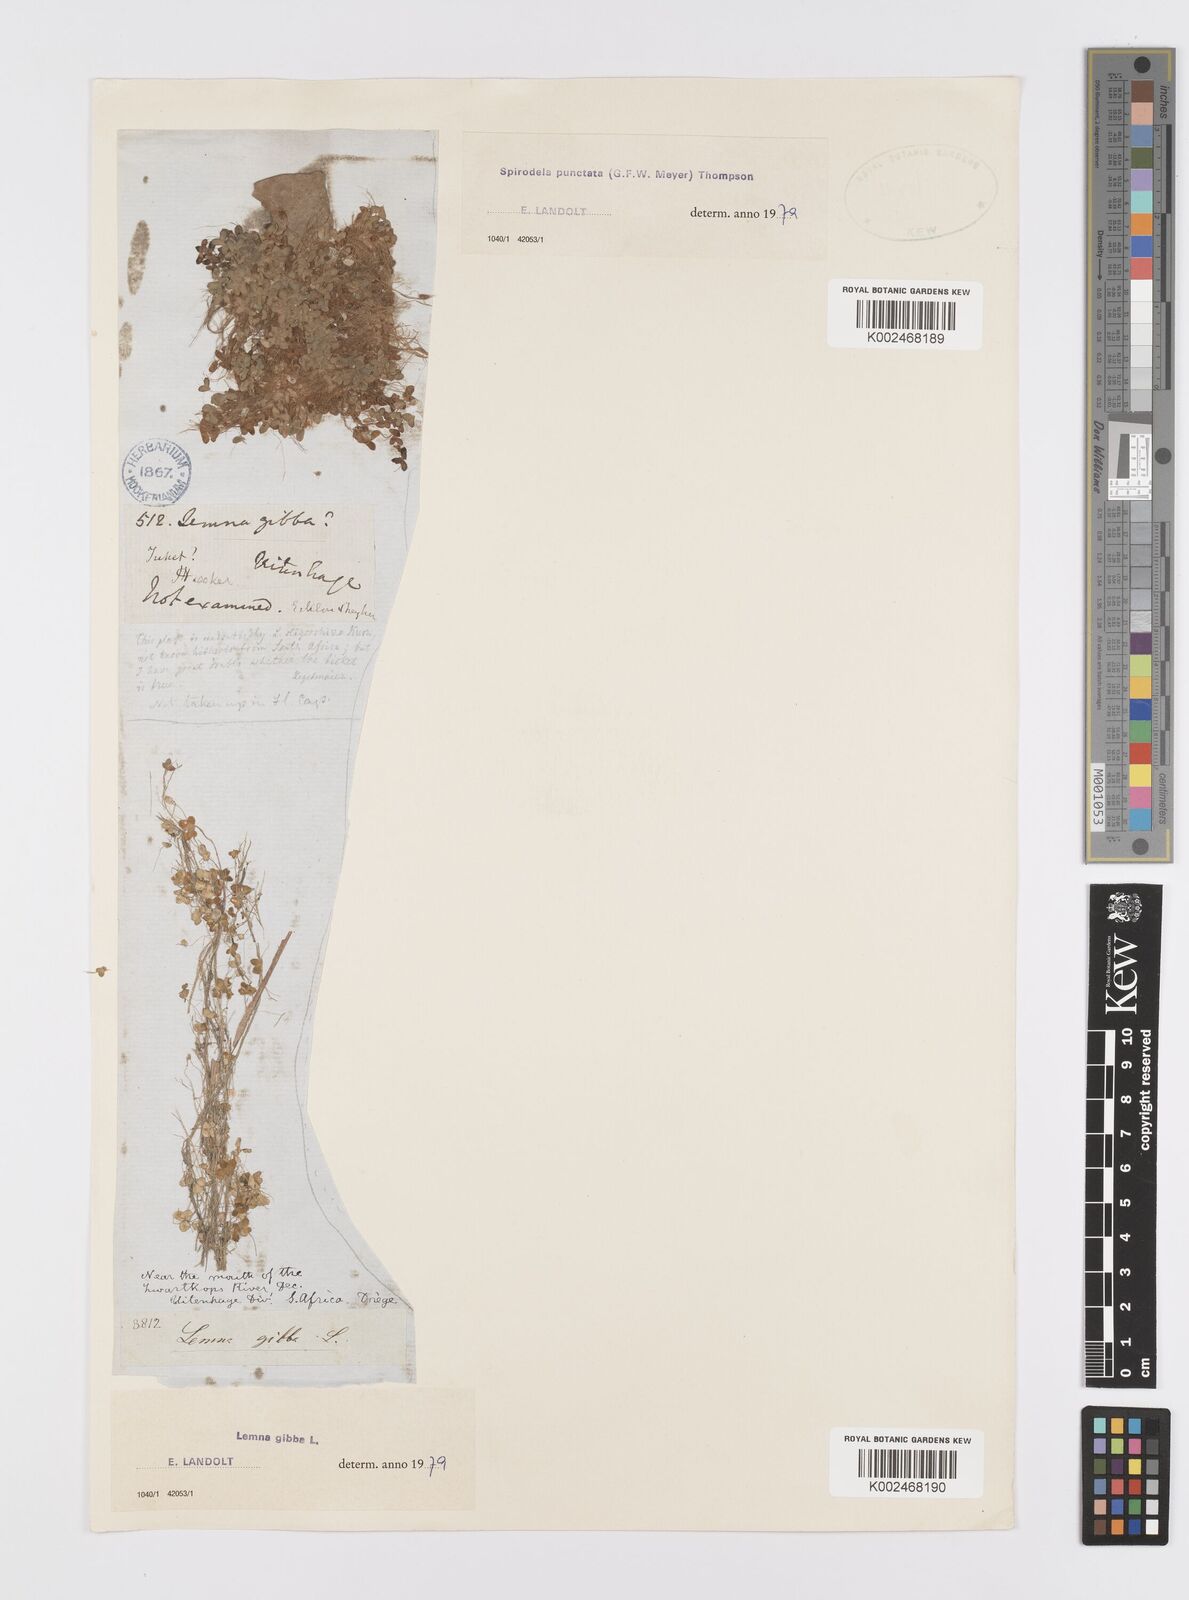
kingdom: Plantae
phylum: Tracheophyta
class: Liliopsida
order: Alismatales
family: Araceae
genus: Lemna
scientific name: Lemna gibba
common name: Fat duckweed
